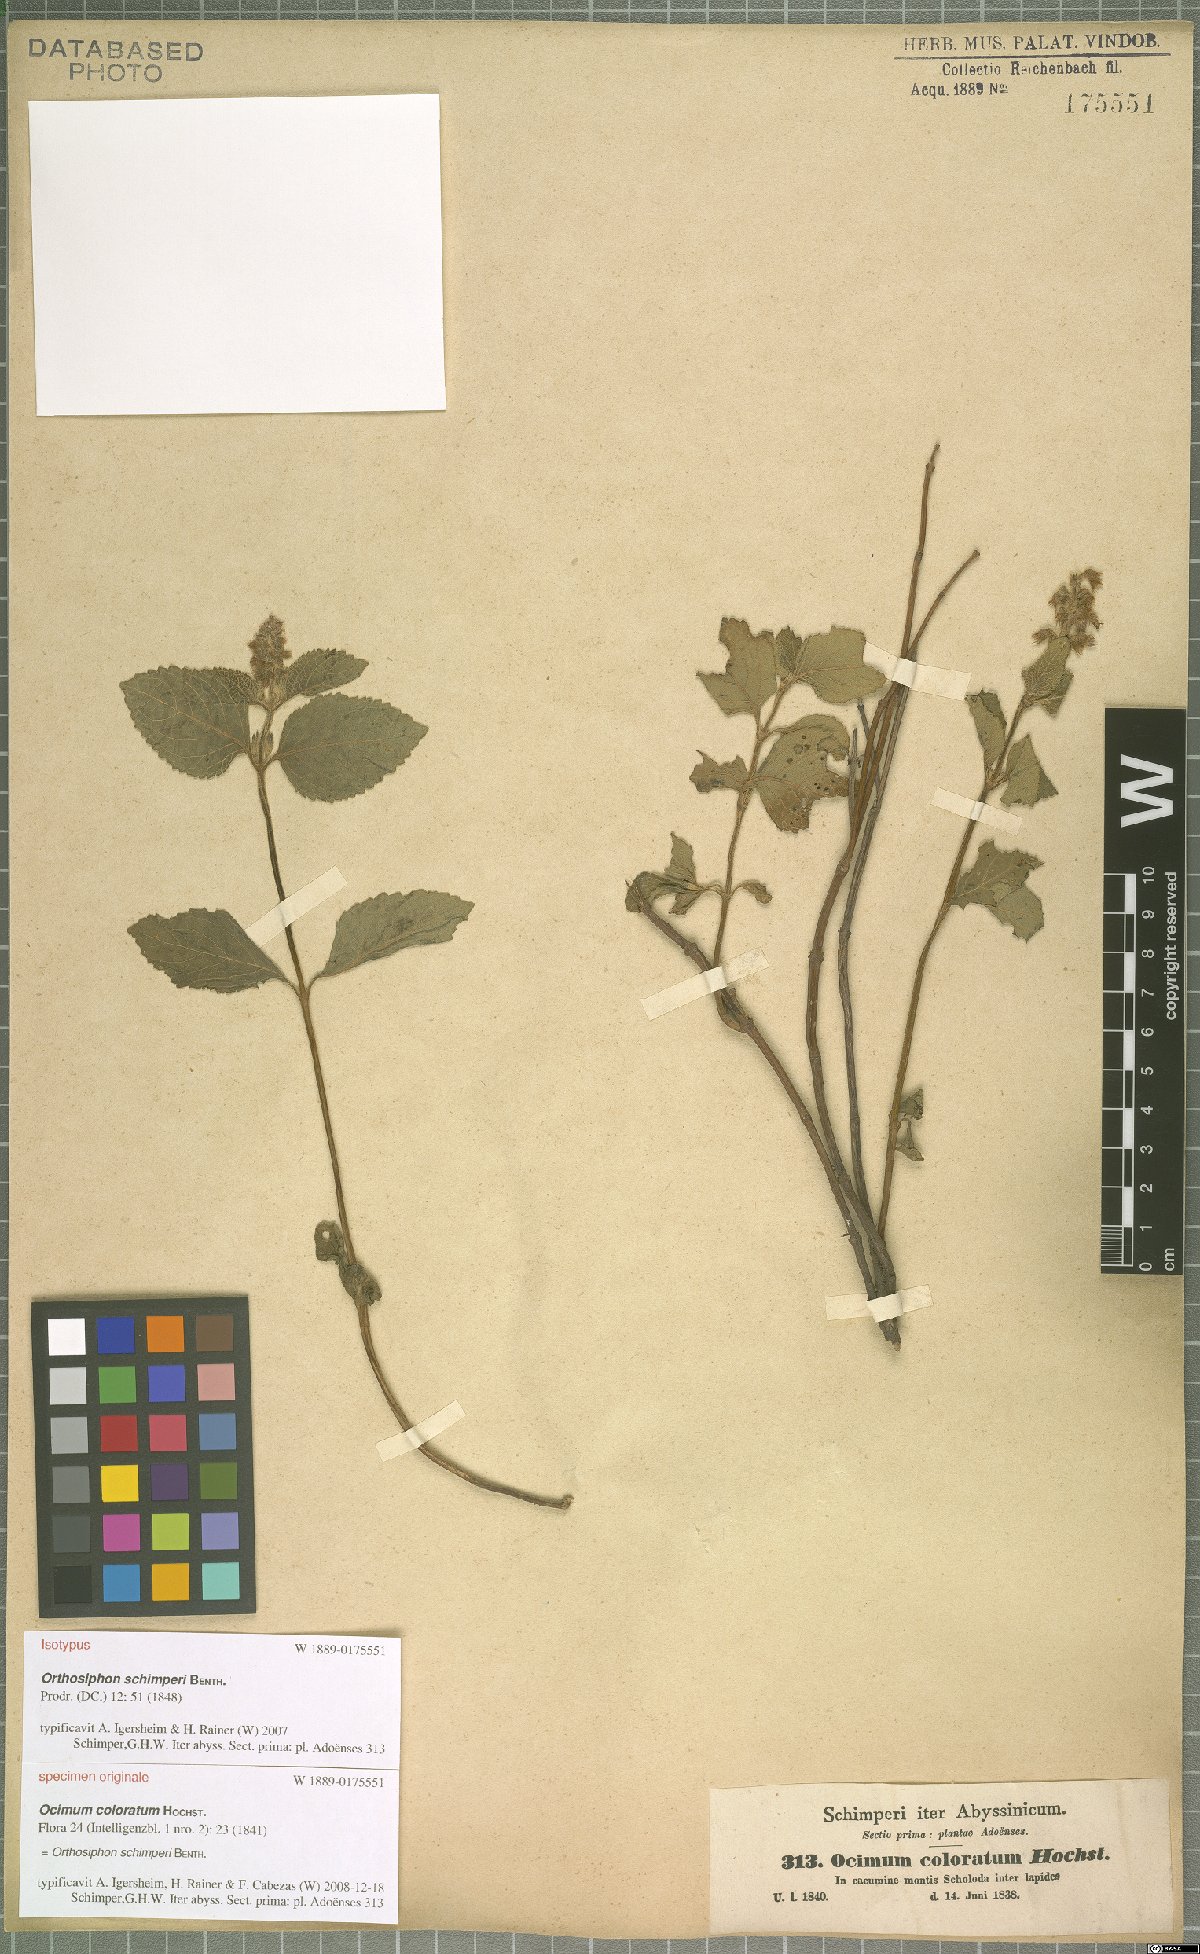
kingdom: Plantae
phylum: Tracheophyta
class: Magnoliopsida
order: Lamiales
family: Lamiaceae
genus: Orthosiphon
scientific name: Orthosiphon schimperi
